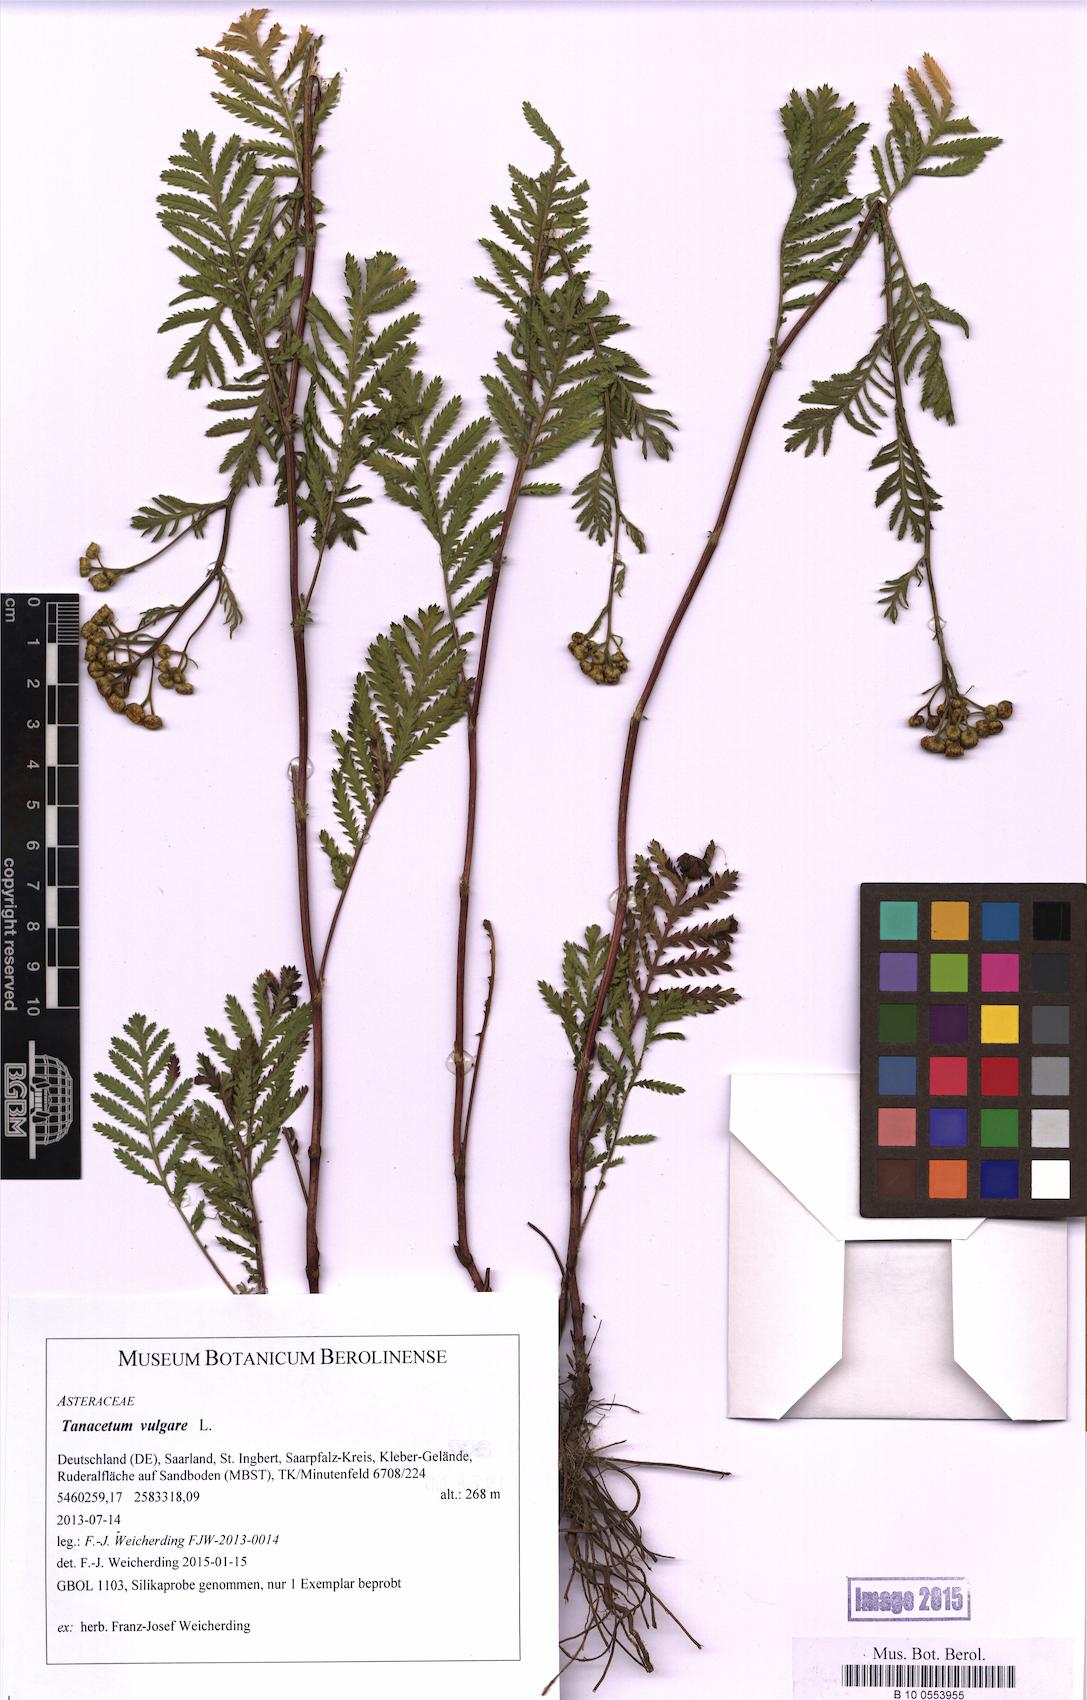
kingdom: Plantae
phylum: Tracheophyta
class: Magnoliopsida
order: Asterales
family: Asteraceae
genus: Tanacetum
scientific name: Tanacetum vulgare
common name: Common tansy
